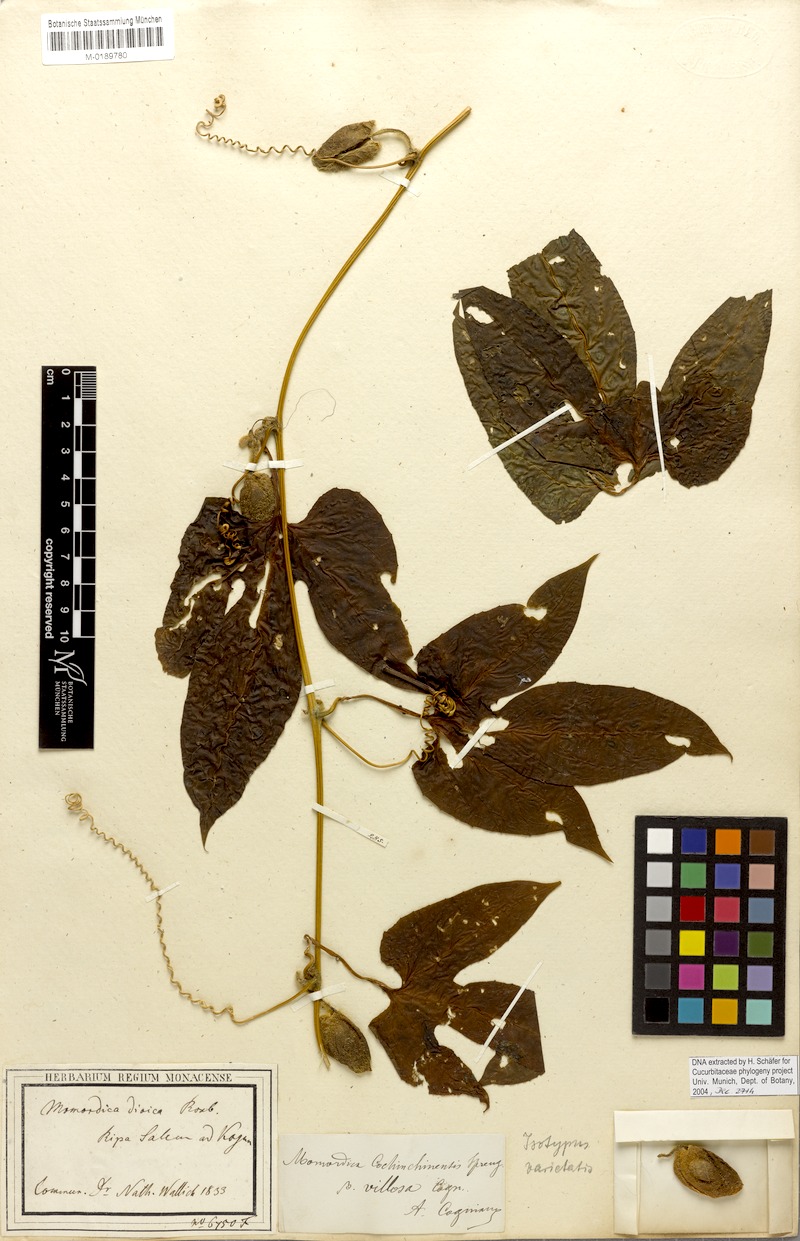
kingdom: Plantae
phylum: Tracheophyta
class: Magnoliopsida
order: Cucurbitales
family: Cucurbitaceae
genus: Momordica
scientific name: Momordica cochinchinensis
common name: Chinese bitter-cucumber
